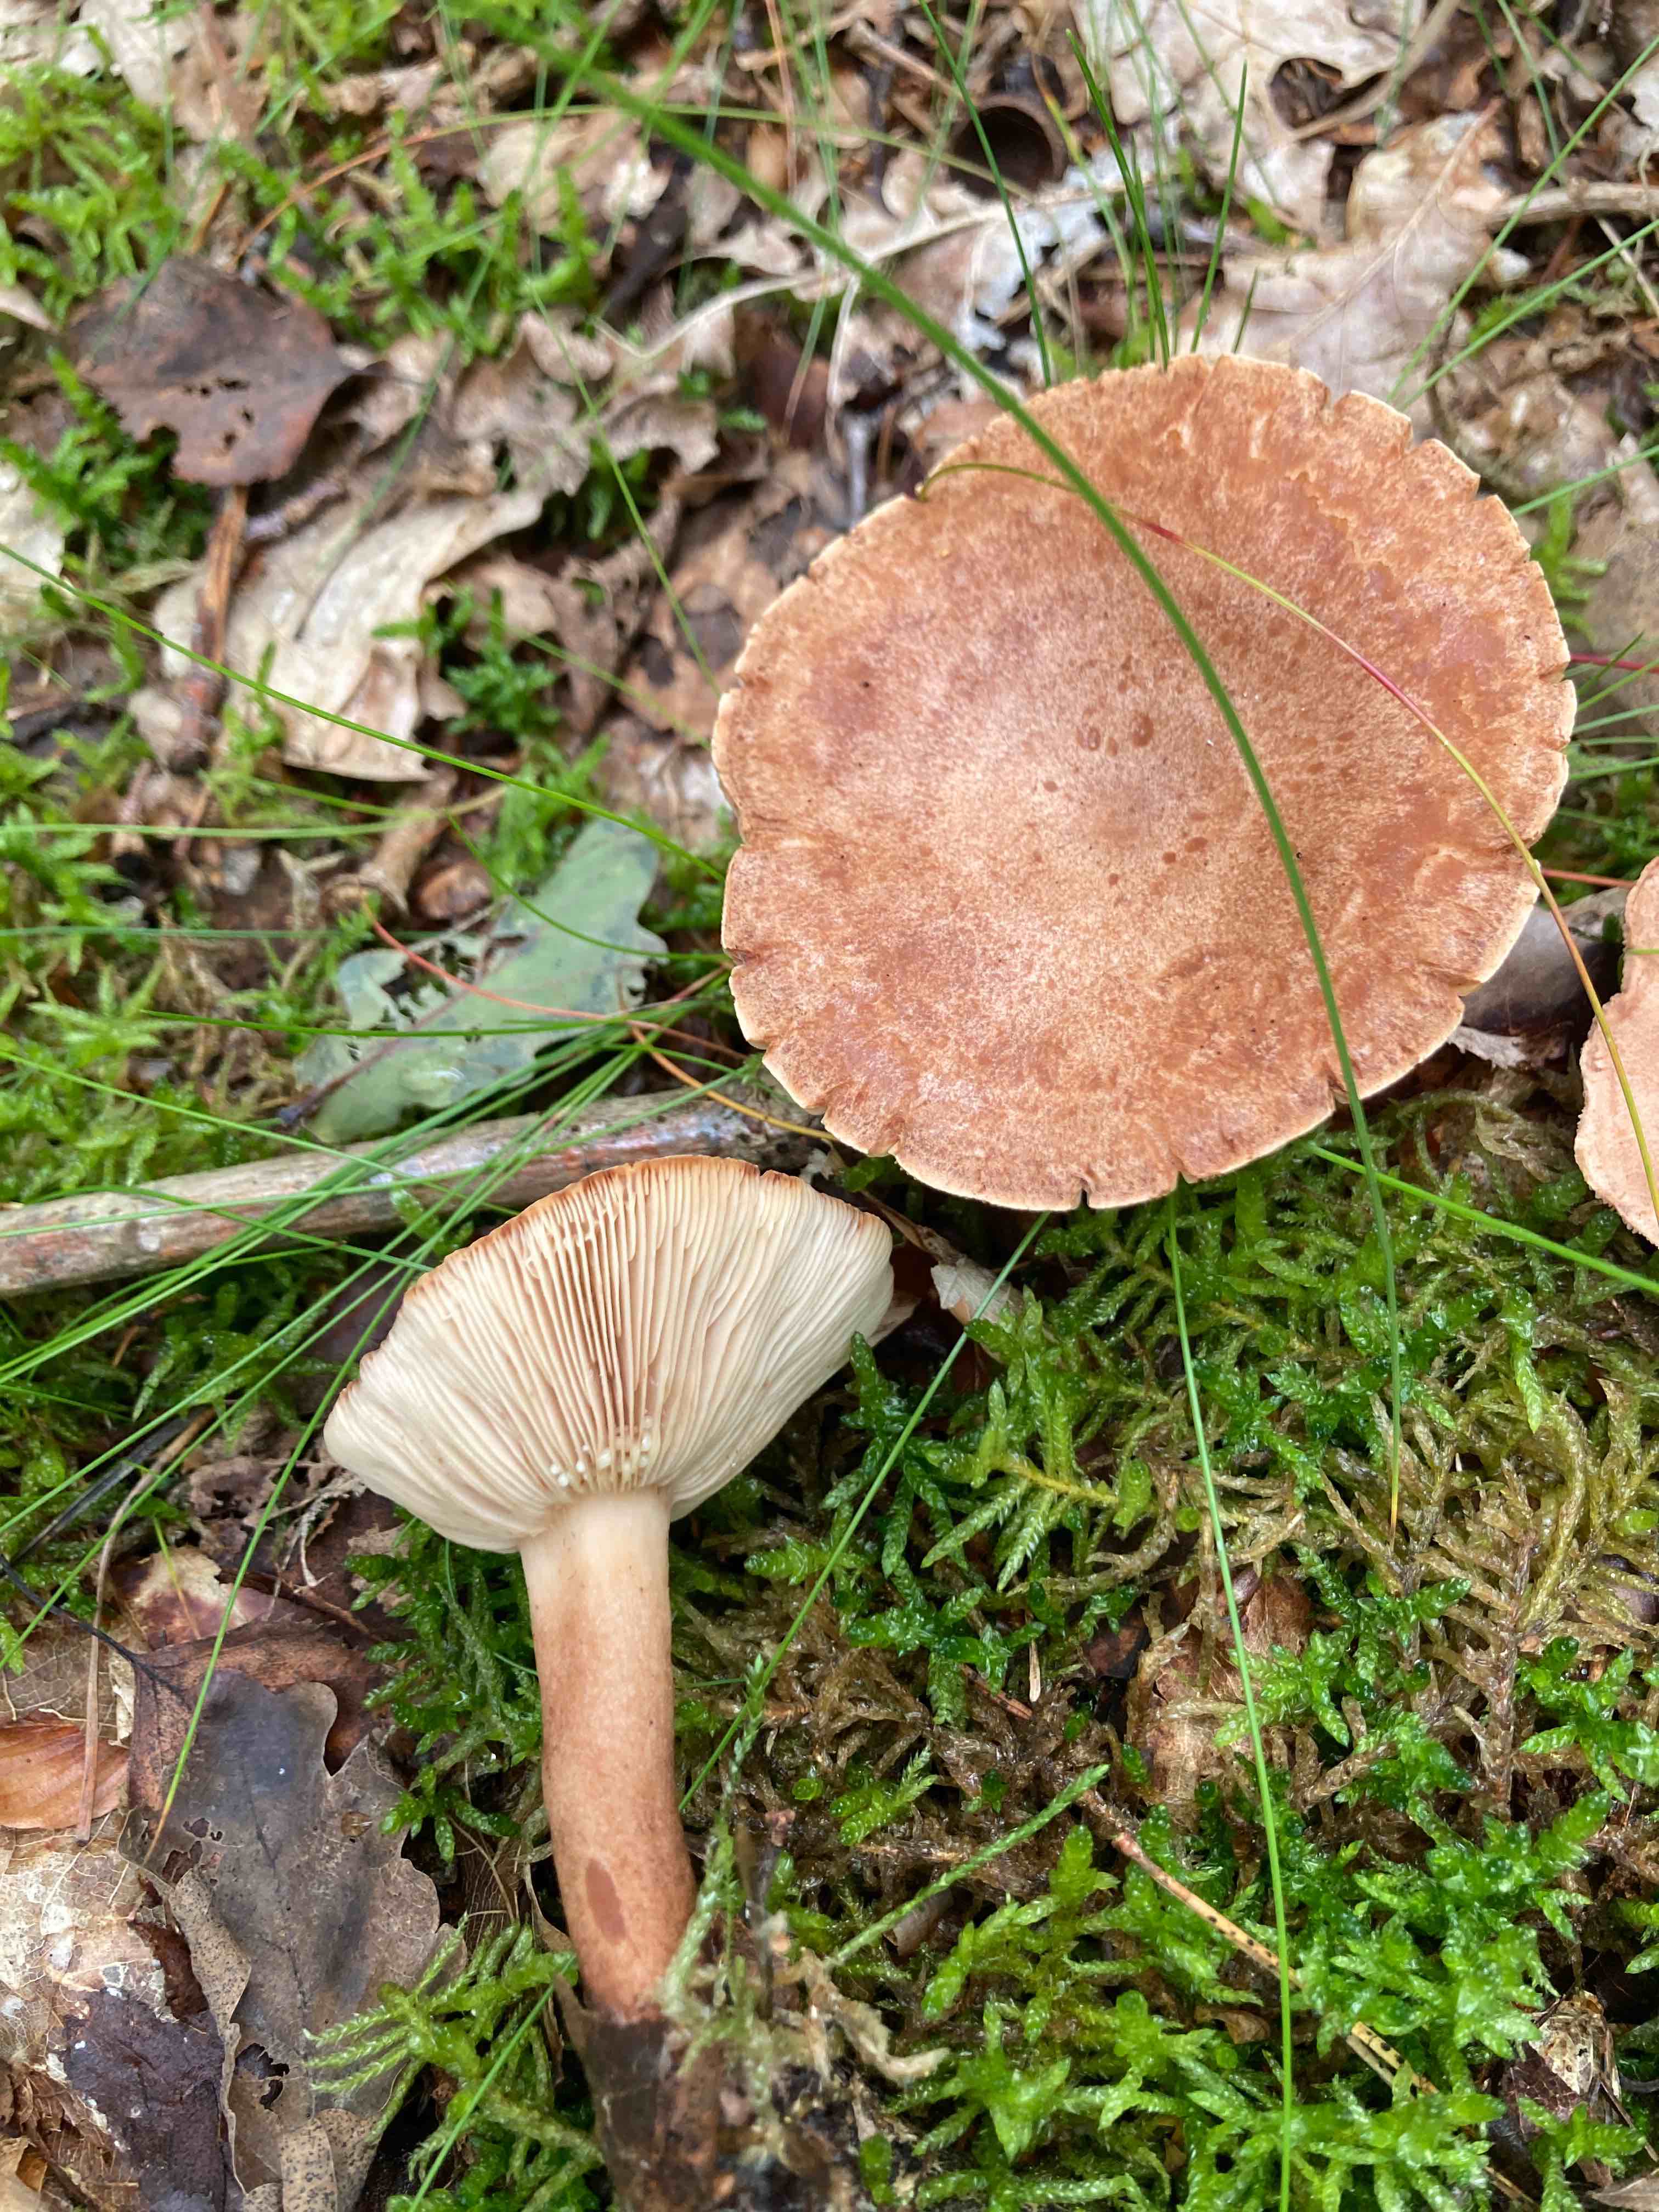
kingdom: Fungi
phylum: Basidiomycota
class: Agaricomycetes
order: Russulales
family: Russulaceae
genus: Lactarius
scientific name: Lactarius
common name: mælkehat
